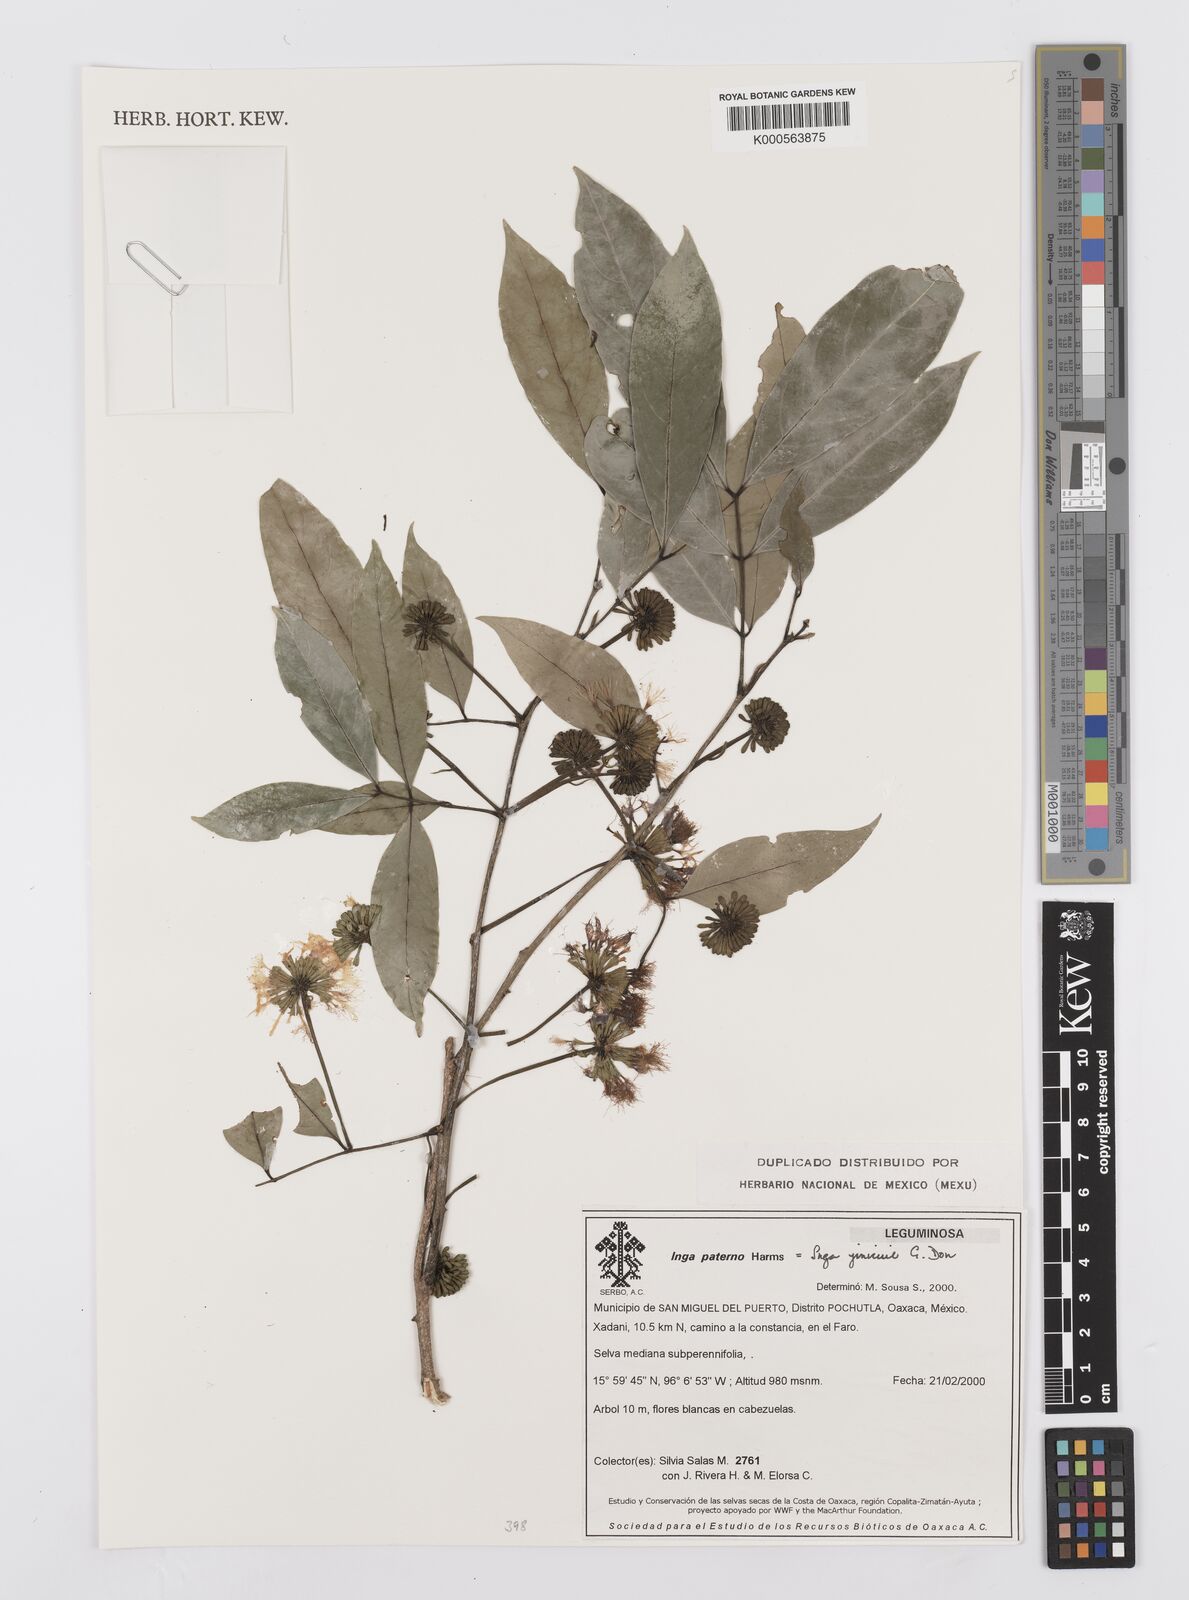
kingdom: Plantae
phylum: Tracheophyta
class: Magnoliopsida
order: Fabales
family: Fabaceae
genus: Inga
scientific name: Inga inicuil
